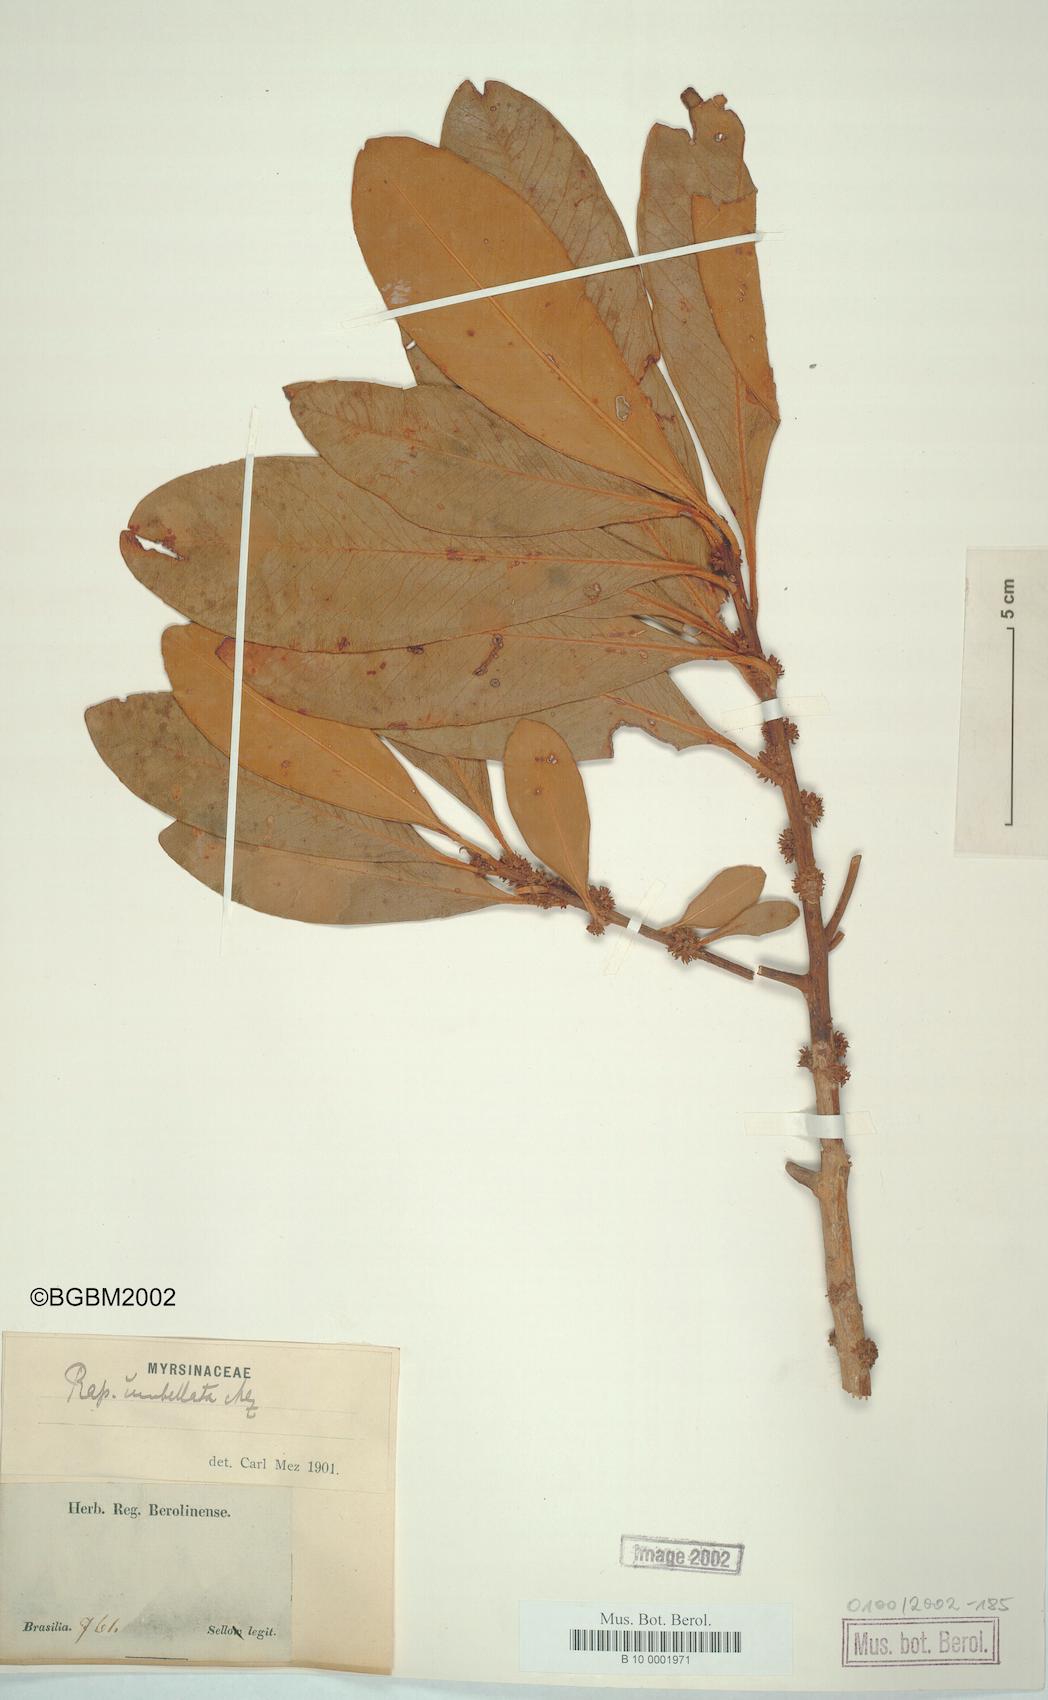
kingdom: Plantae
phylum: Tracheophyta
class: Magnoliopsida
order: Ericales
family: Primulaceae
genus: Myrsine
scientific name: Myrsine umbellata
